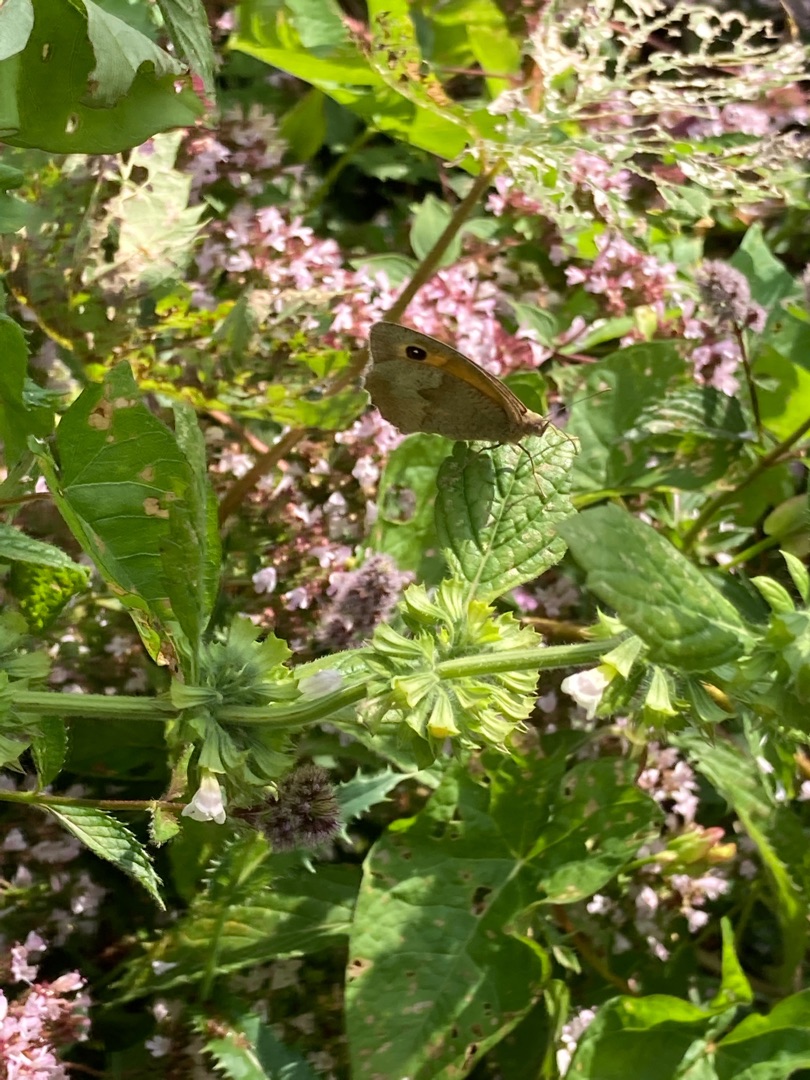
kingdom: Animalia
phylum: Arthropoda
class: Insecta
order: Lepidoptera
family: Nymphalidae
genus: Maniola
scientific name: Maniola jurtina
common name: Græsrandøje
